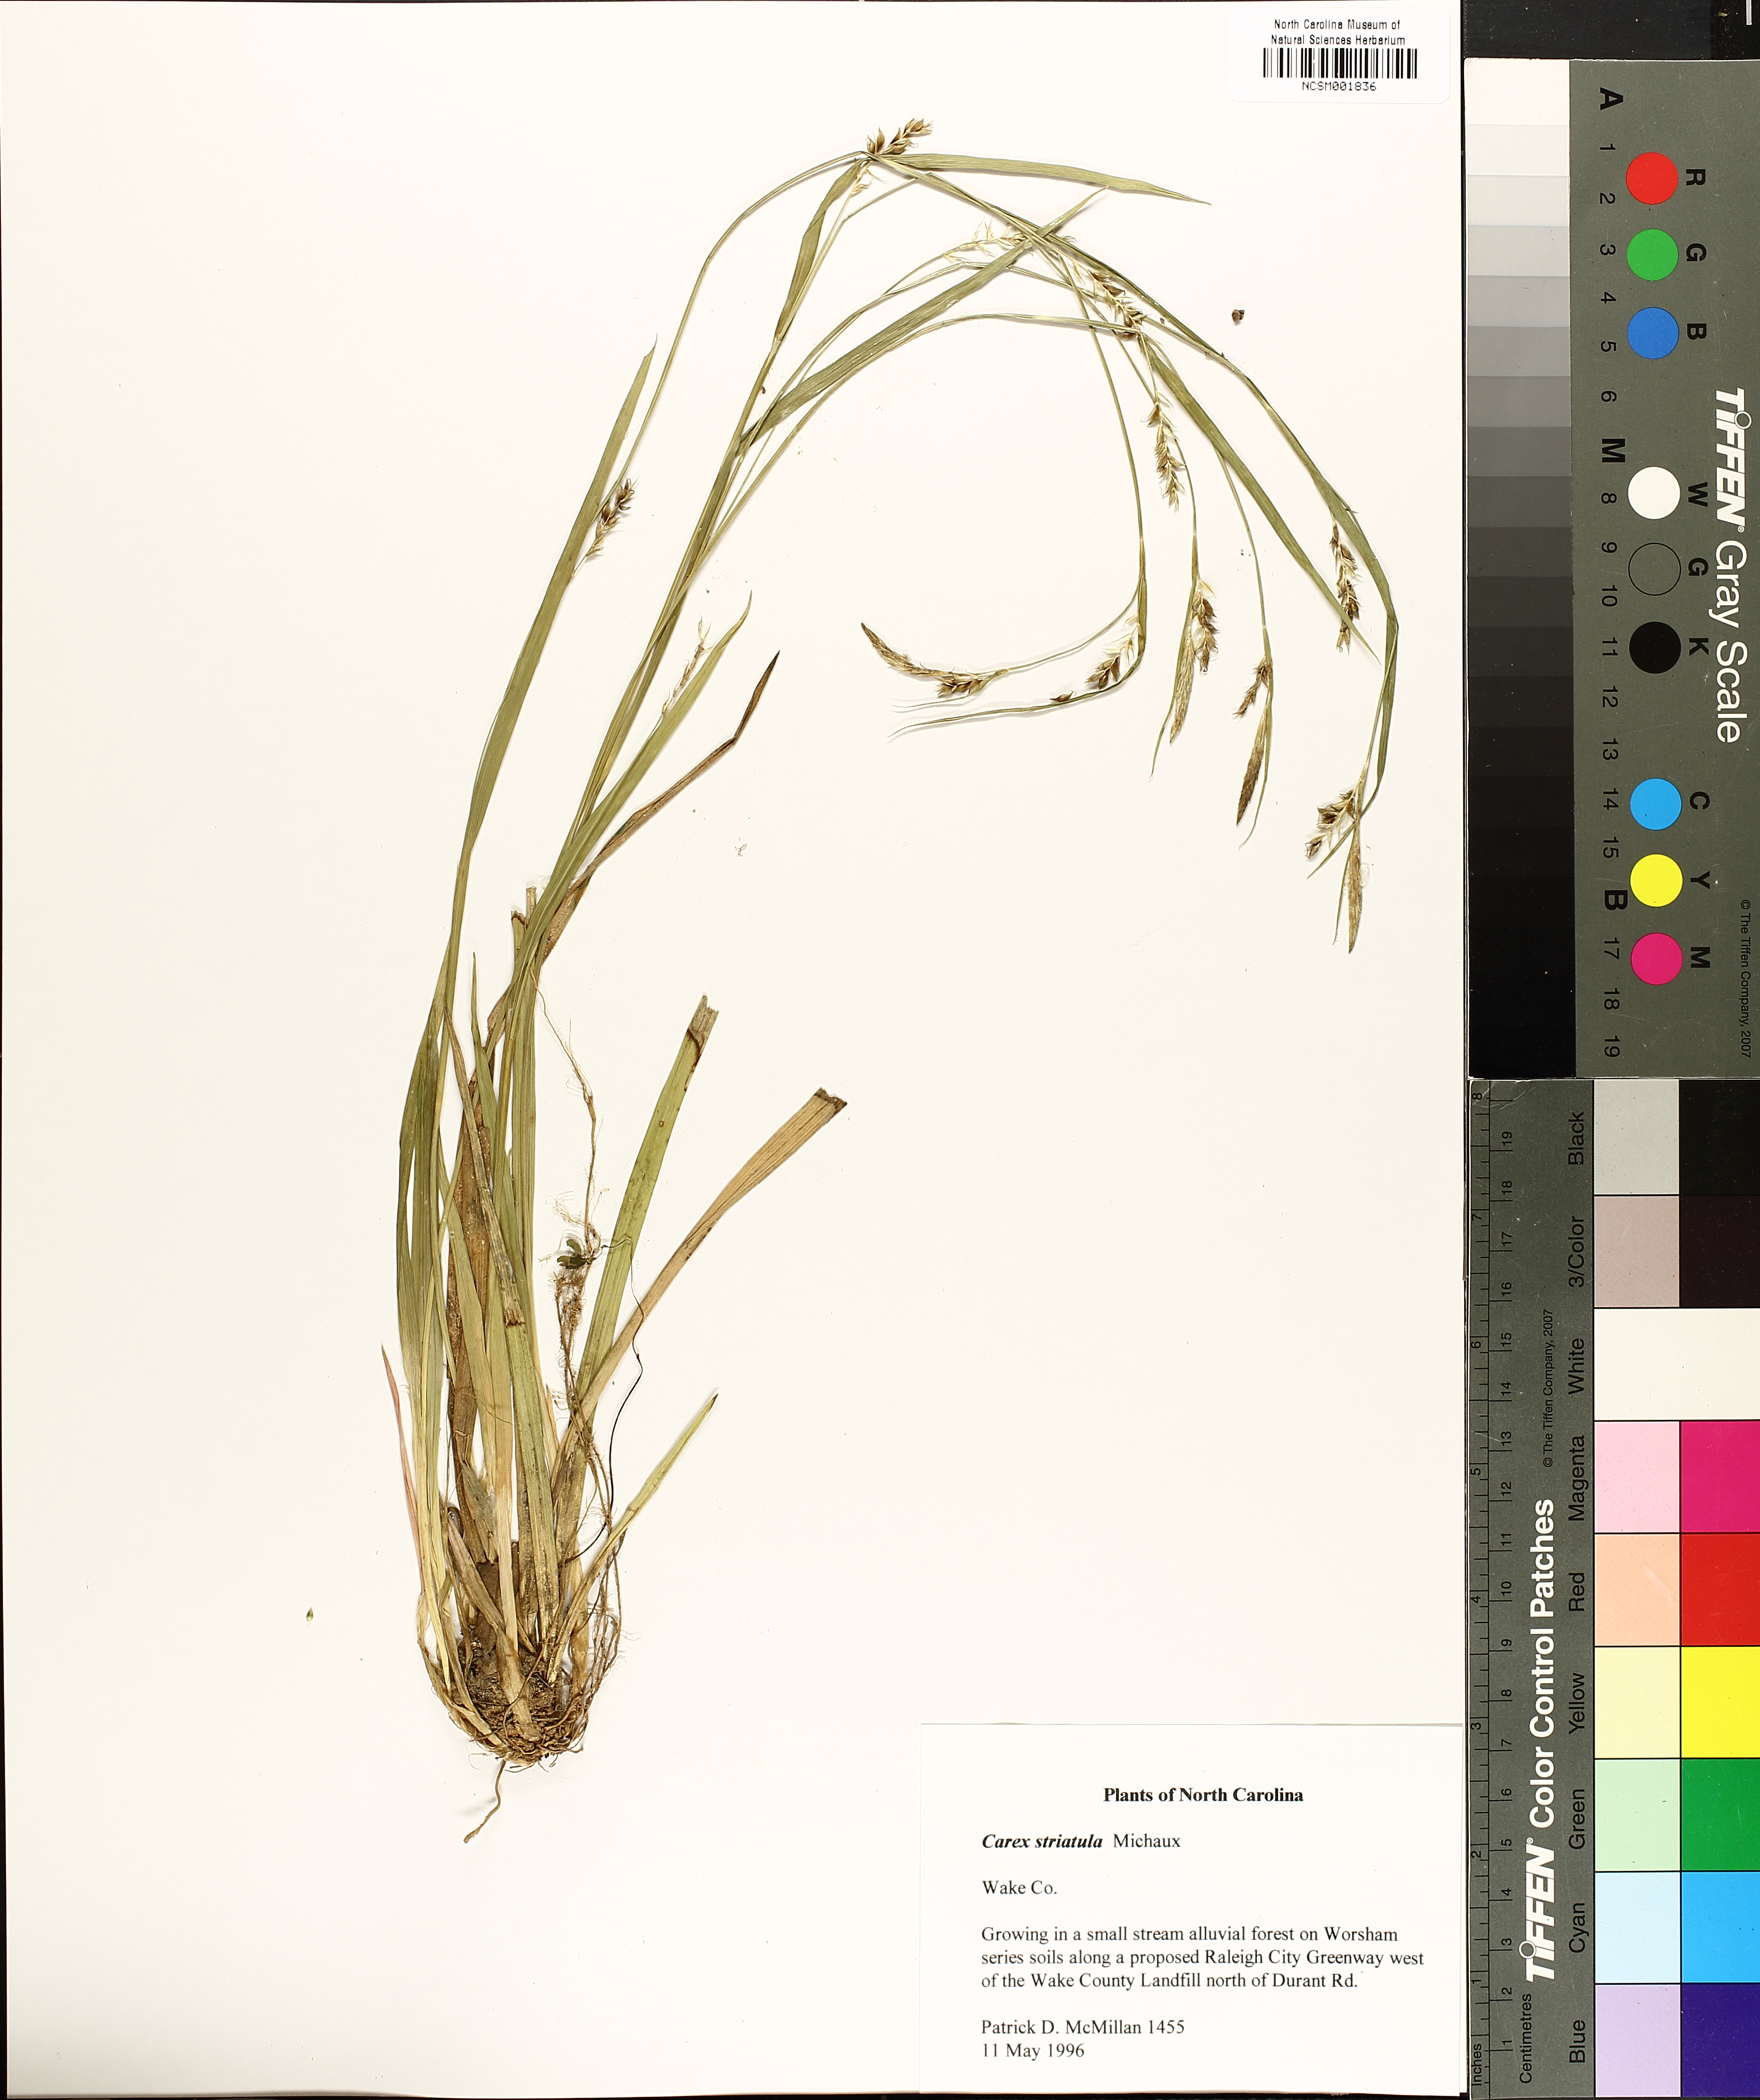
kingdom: Plantae
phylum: Tracheophyta
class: Liliopsida
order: Poales
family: Cyperaceae
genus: Carex
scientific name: Carex striatula
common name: Lined sedge
